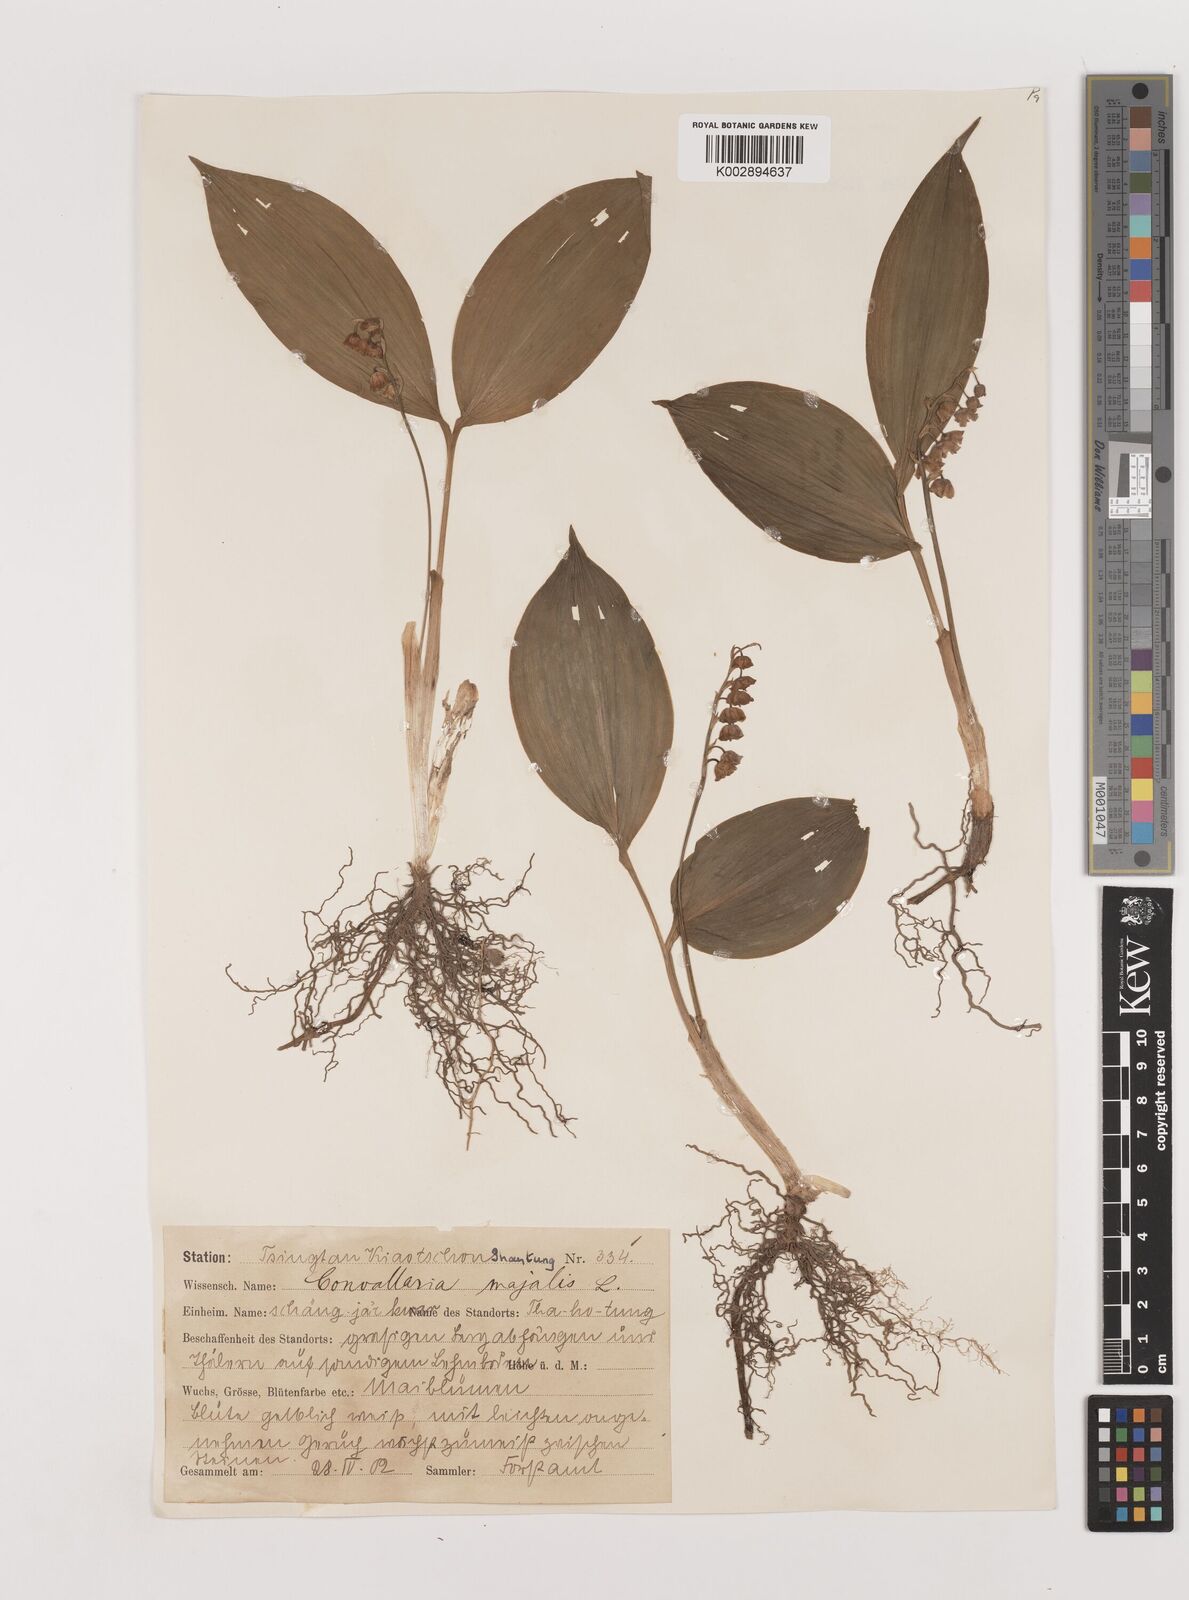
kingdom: Plantae
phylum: Tracheophyta
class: Liliopsida
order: Asparagales
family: Asparagaceae
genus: Ophiopogon
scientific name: Ophiopogon
